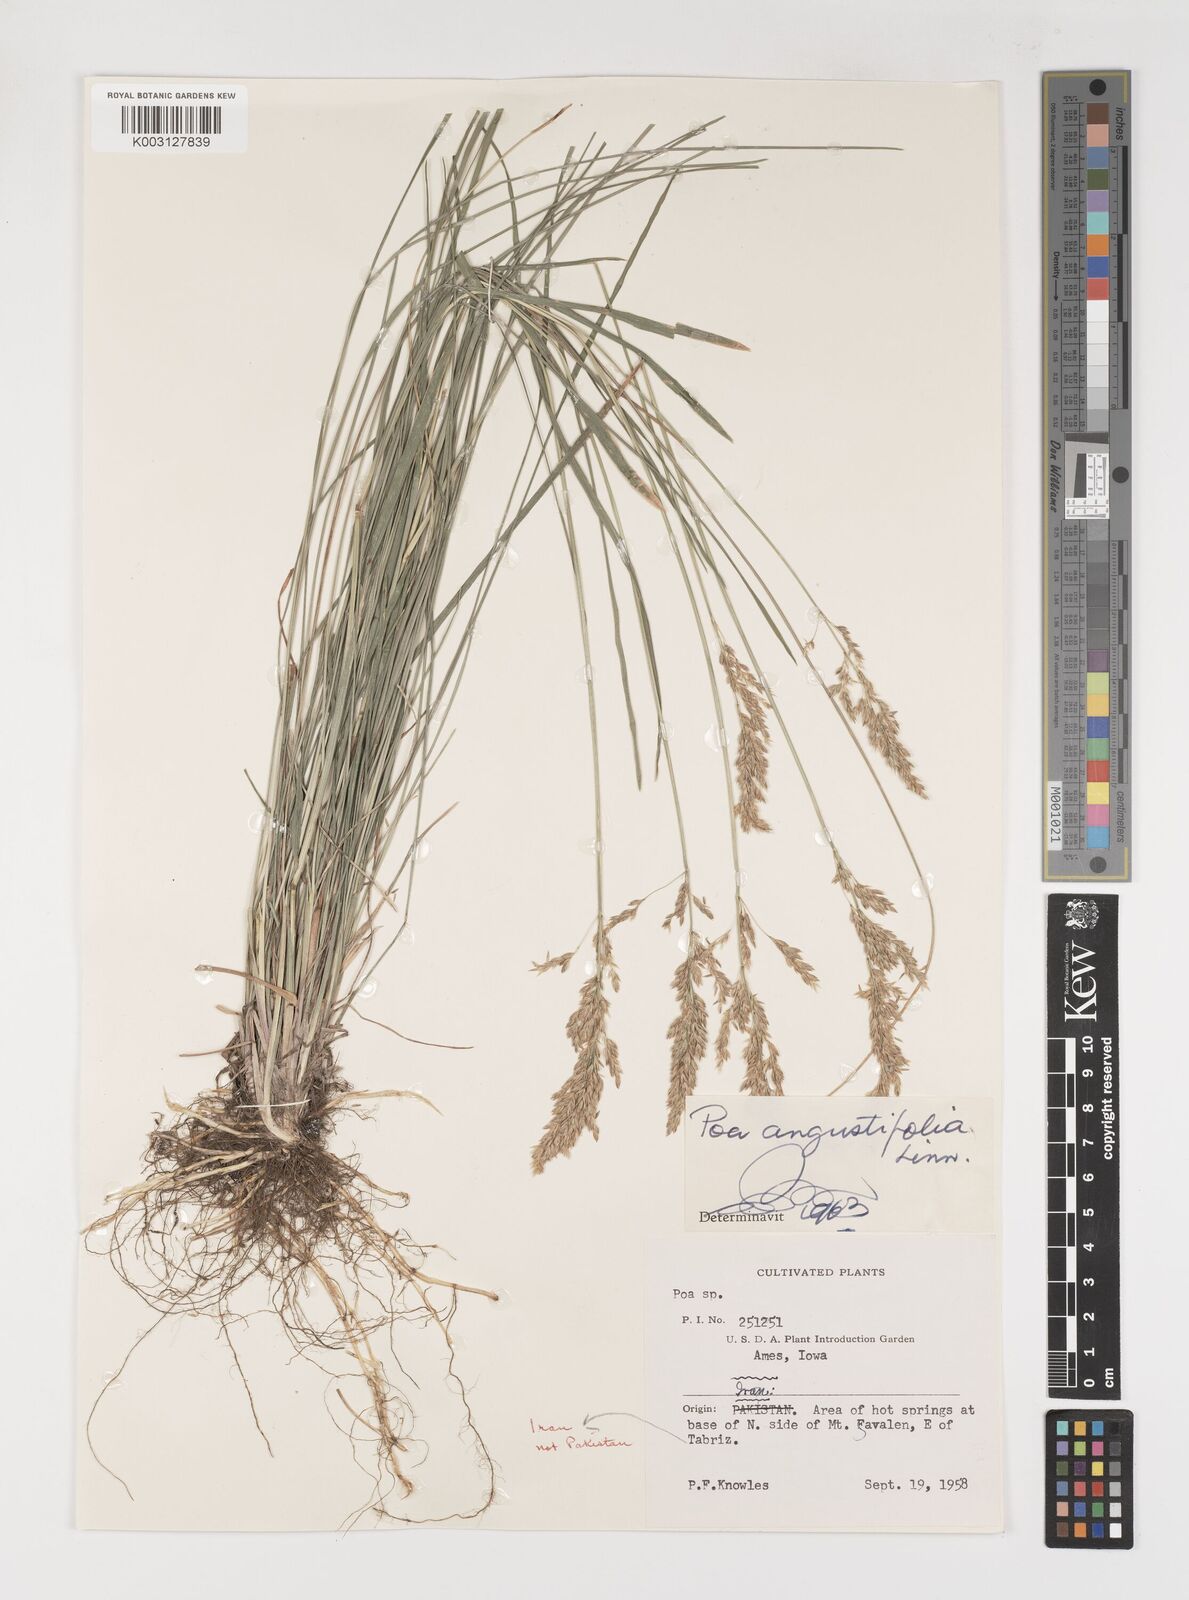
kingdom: Plantae
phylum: Tracheophyta
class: Liliopsida
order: Poales
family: Poaceae
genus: Poa
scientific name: Poa angustifolia
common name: Narrow-leaved meadow-grass
